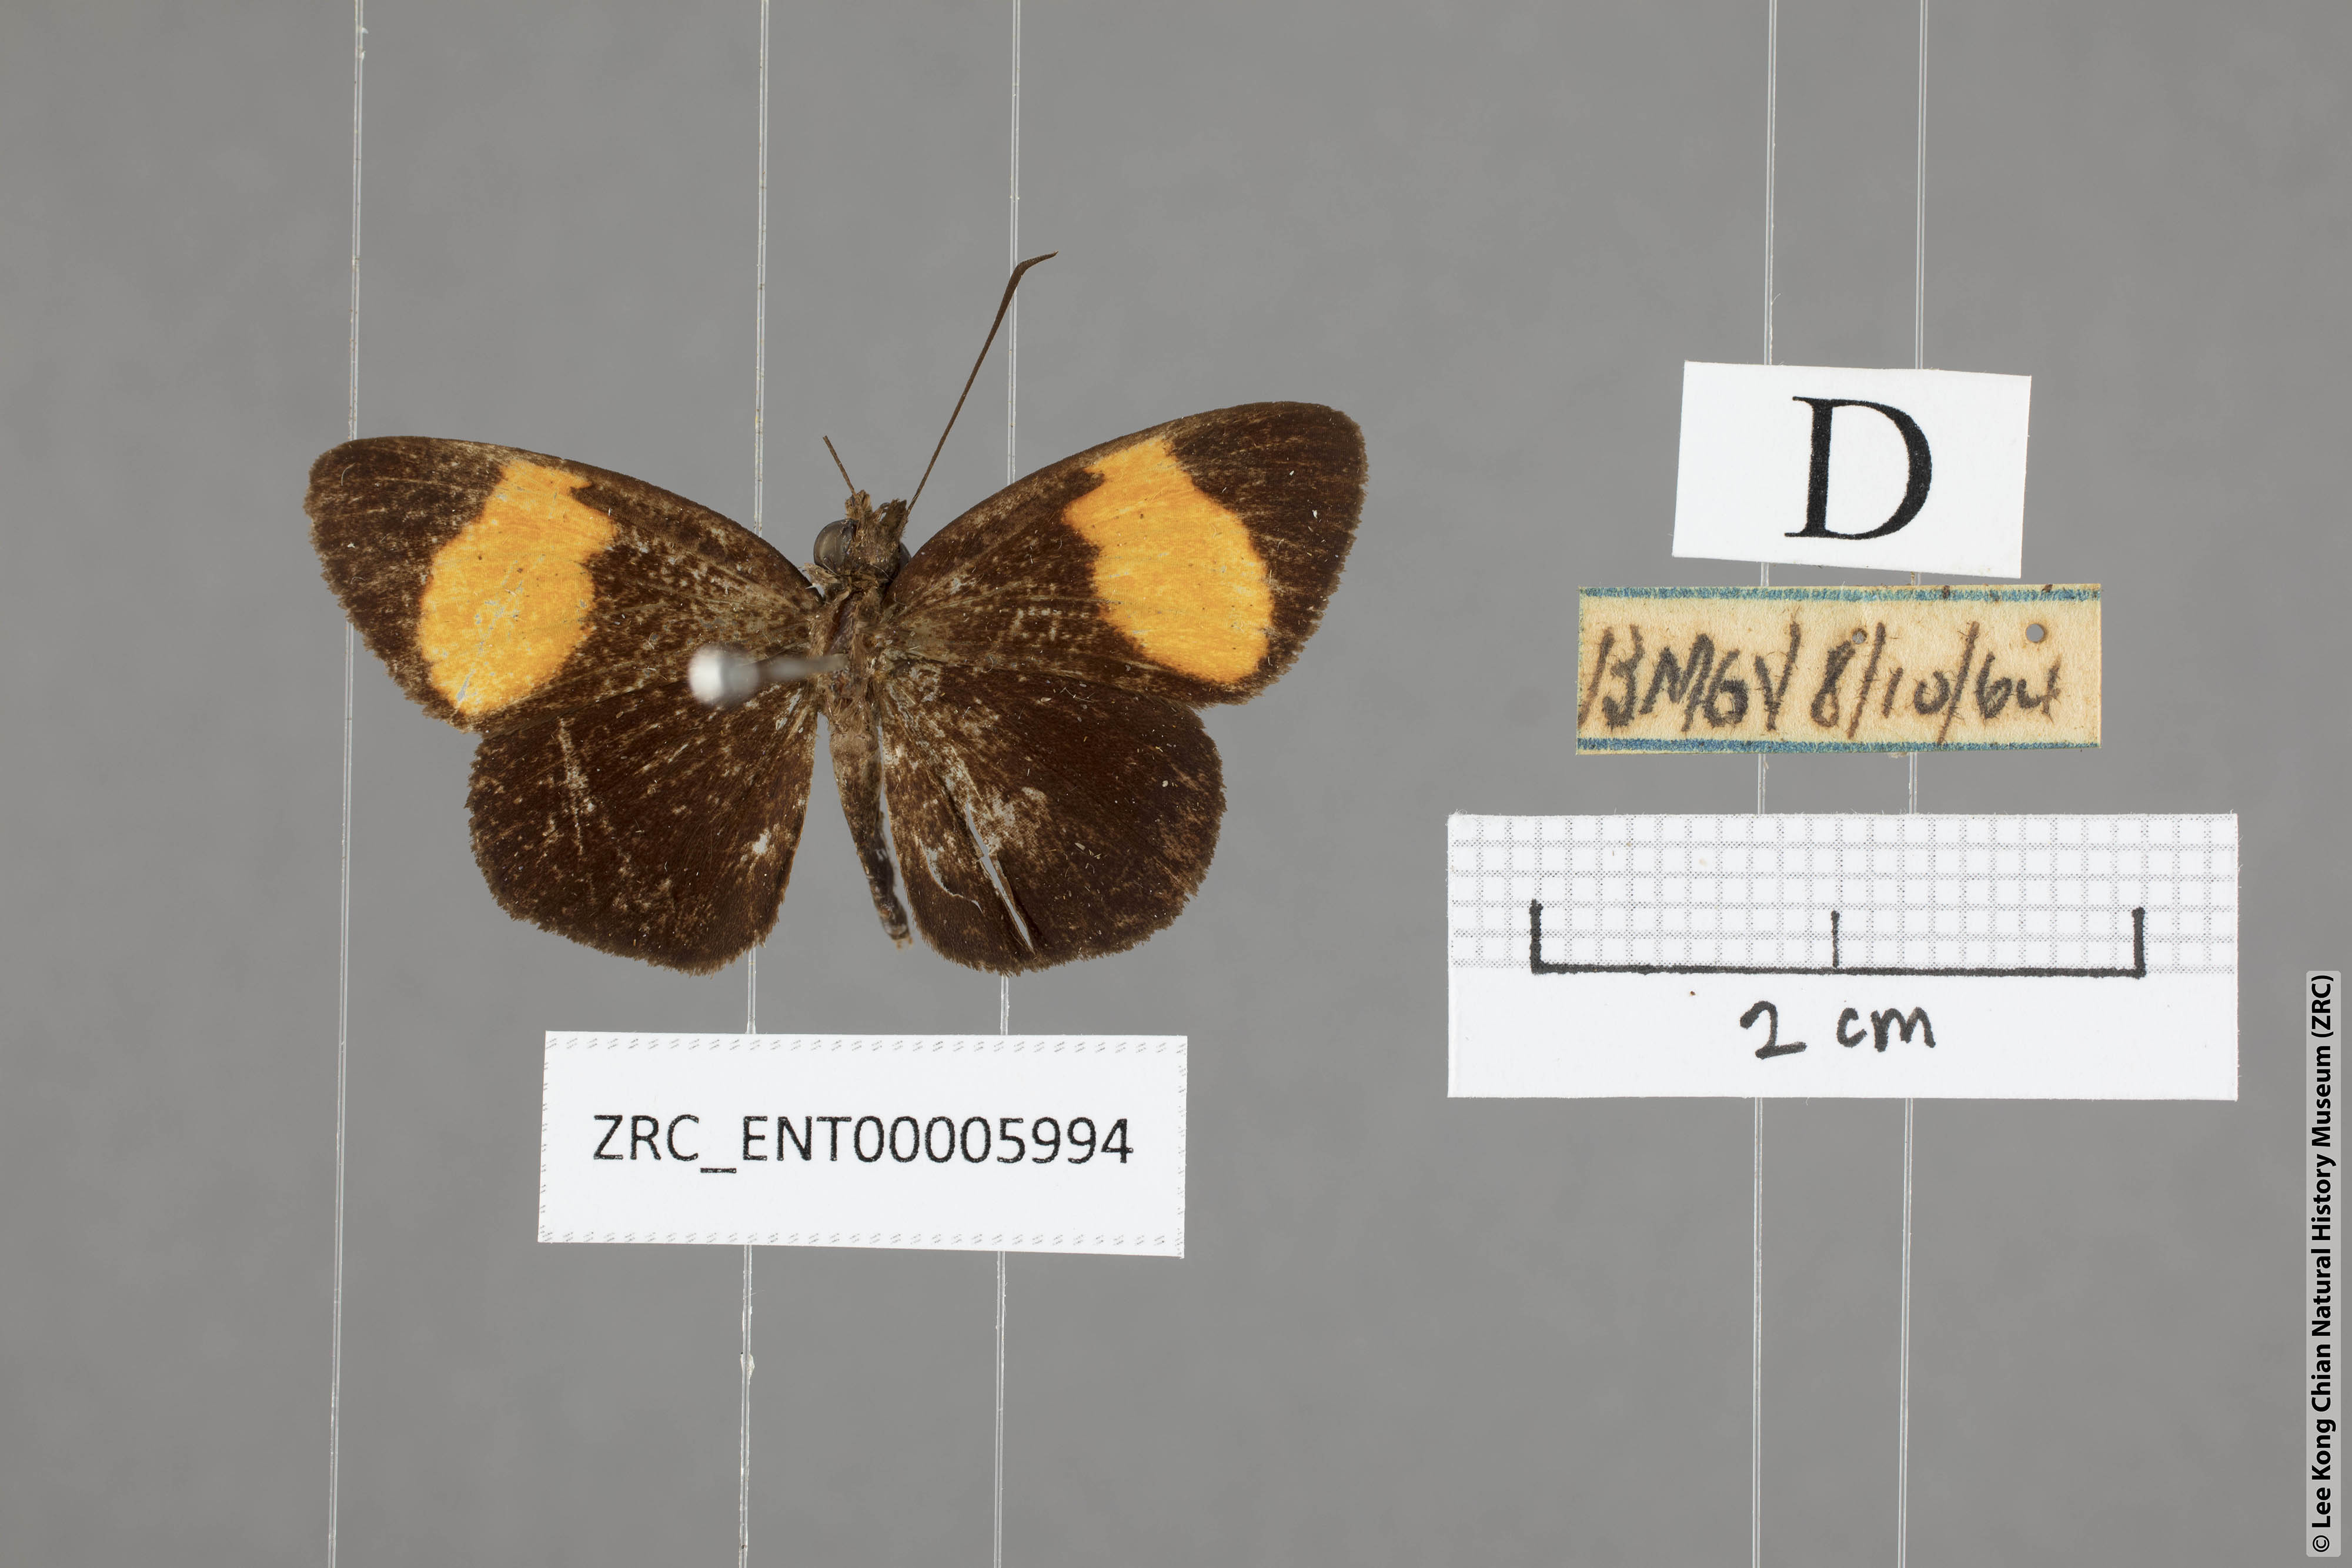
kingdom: Animalia
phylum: Arthropoda
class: Insecta
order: Lepidoptera
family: Hesperiidae
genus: Ancistroides
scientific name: Ancistroides gemmifer
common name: Gem demon
